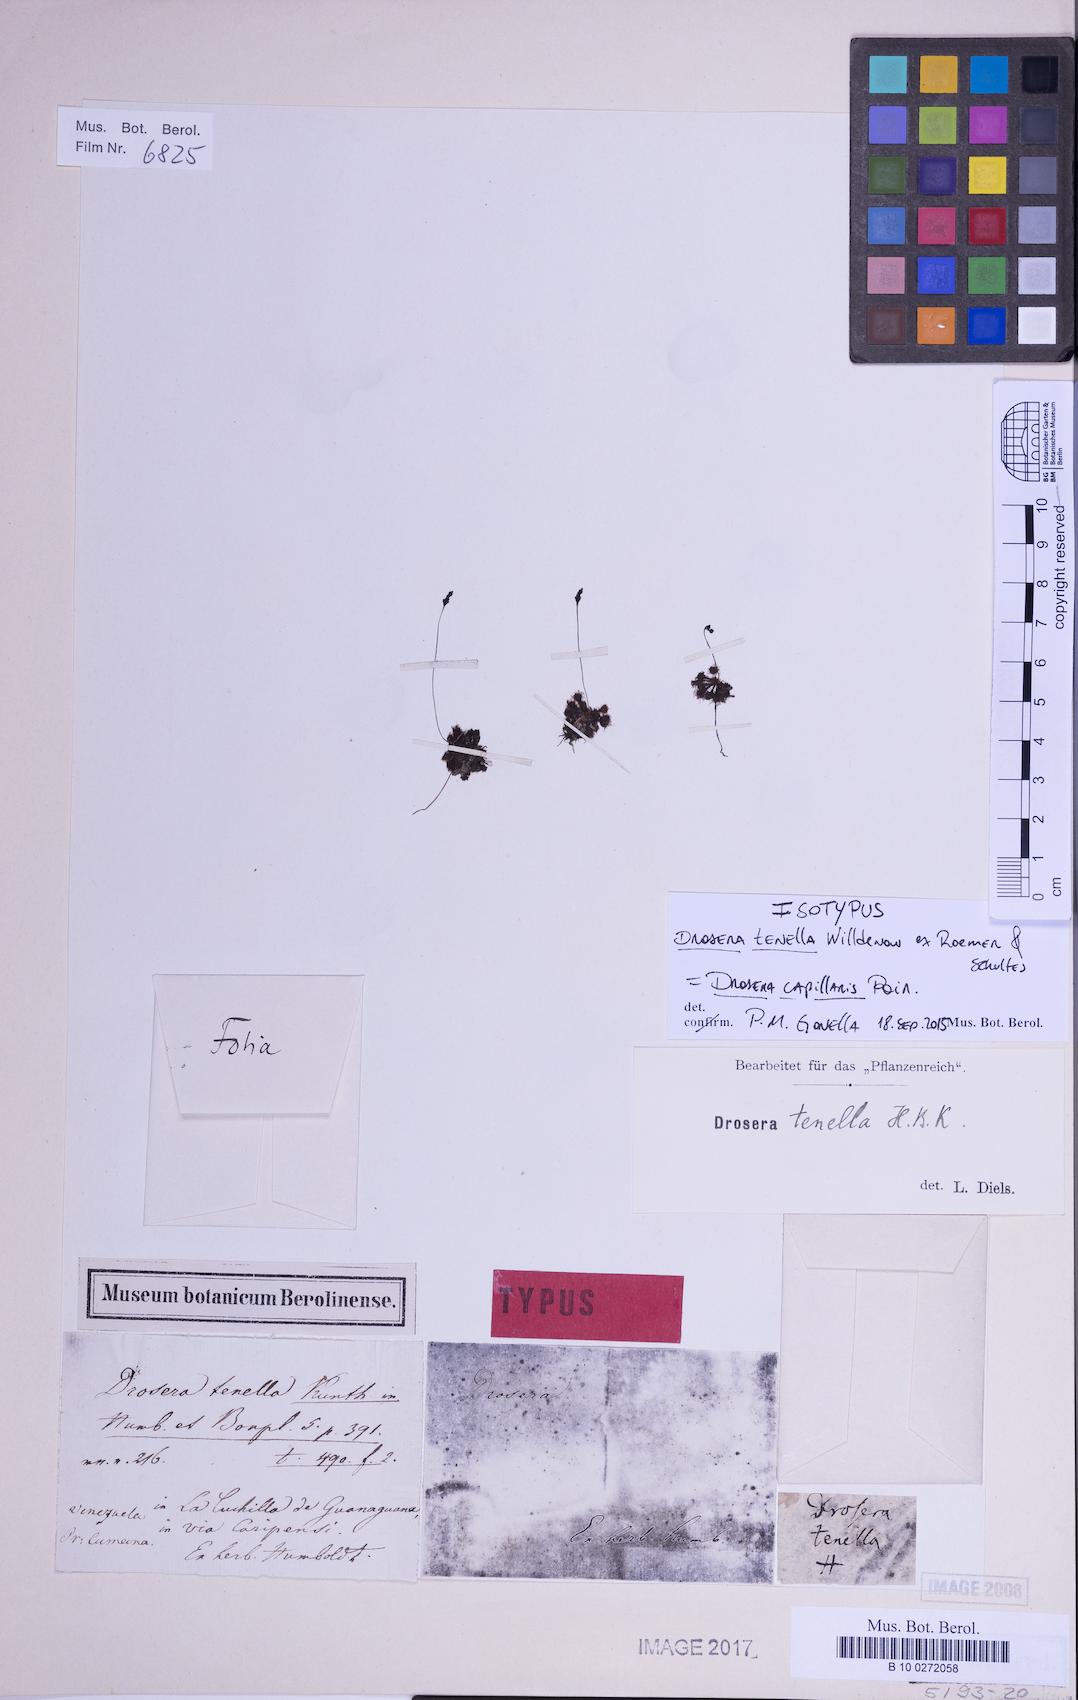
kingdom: Plantae
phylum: Tracheophyta
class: Magnoliopsida
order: Caryophyllales
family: Droseraceae
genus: Drosera
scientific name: Drosera capillaris
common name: Pink sundew
